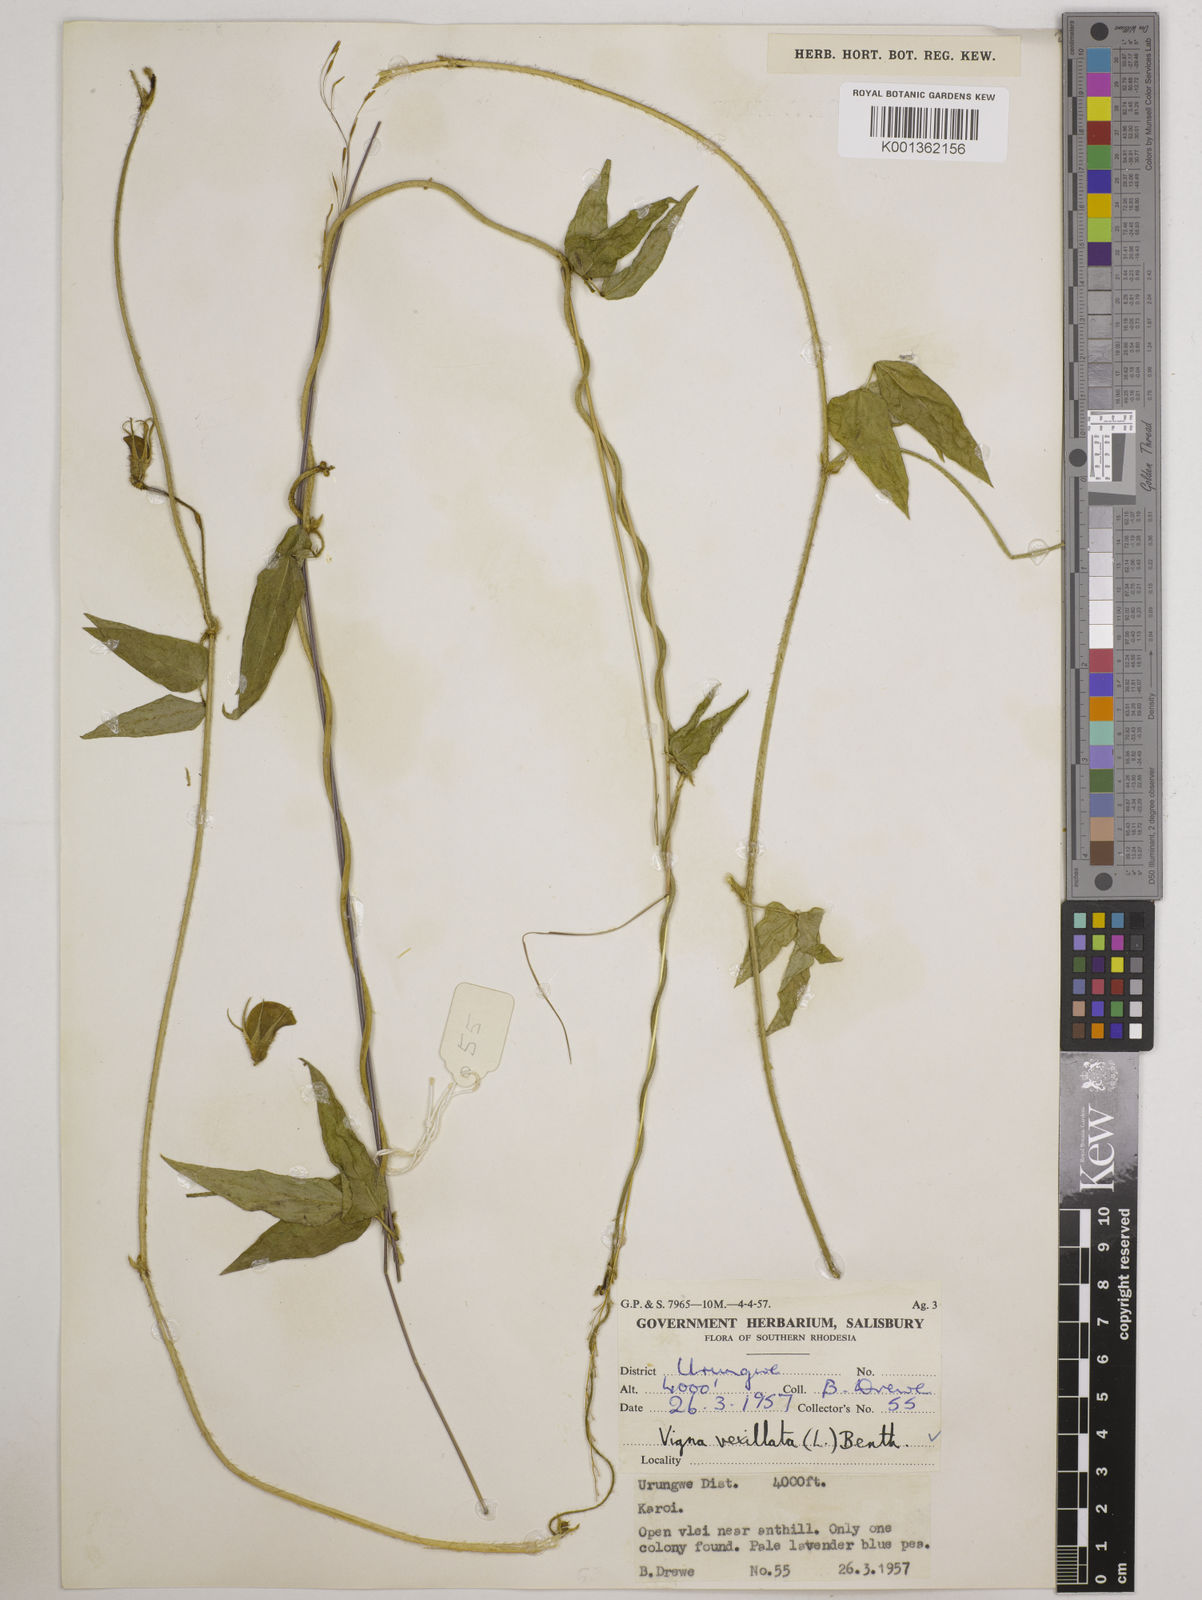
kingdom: Plantae
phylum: Tracheophyta
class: Magnoliopsida
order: Fabales
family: Fabaceae
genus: Vigna
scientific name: Vigna vexillata
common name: Zombi pea
